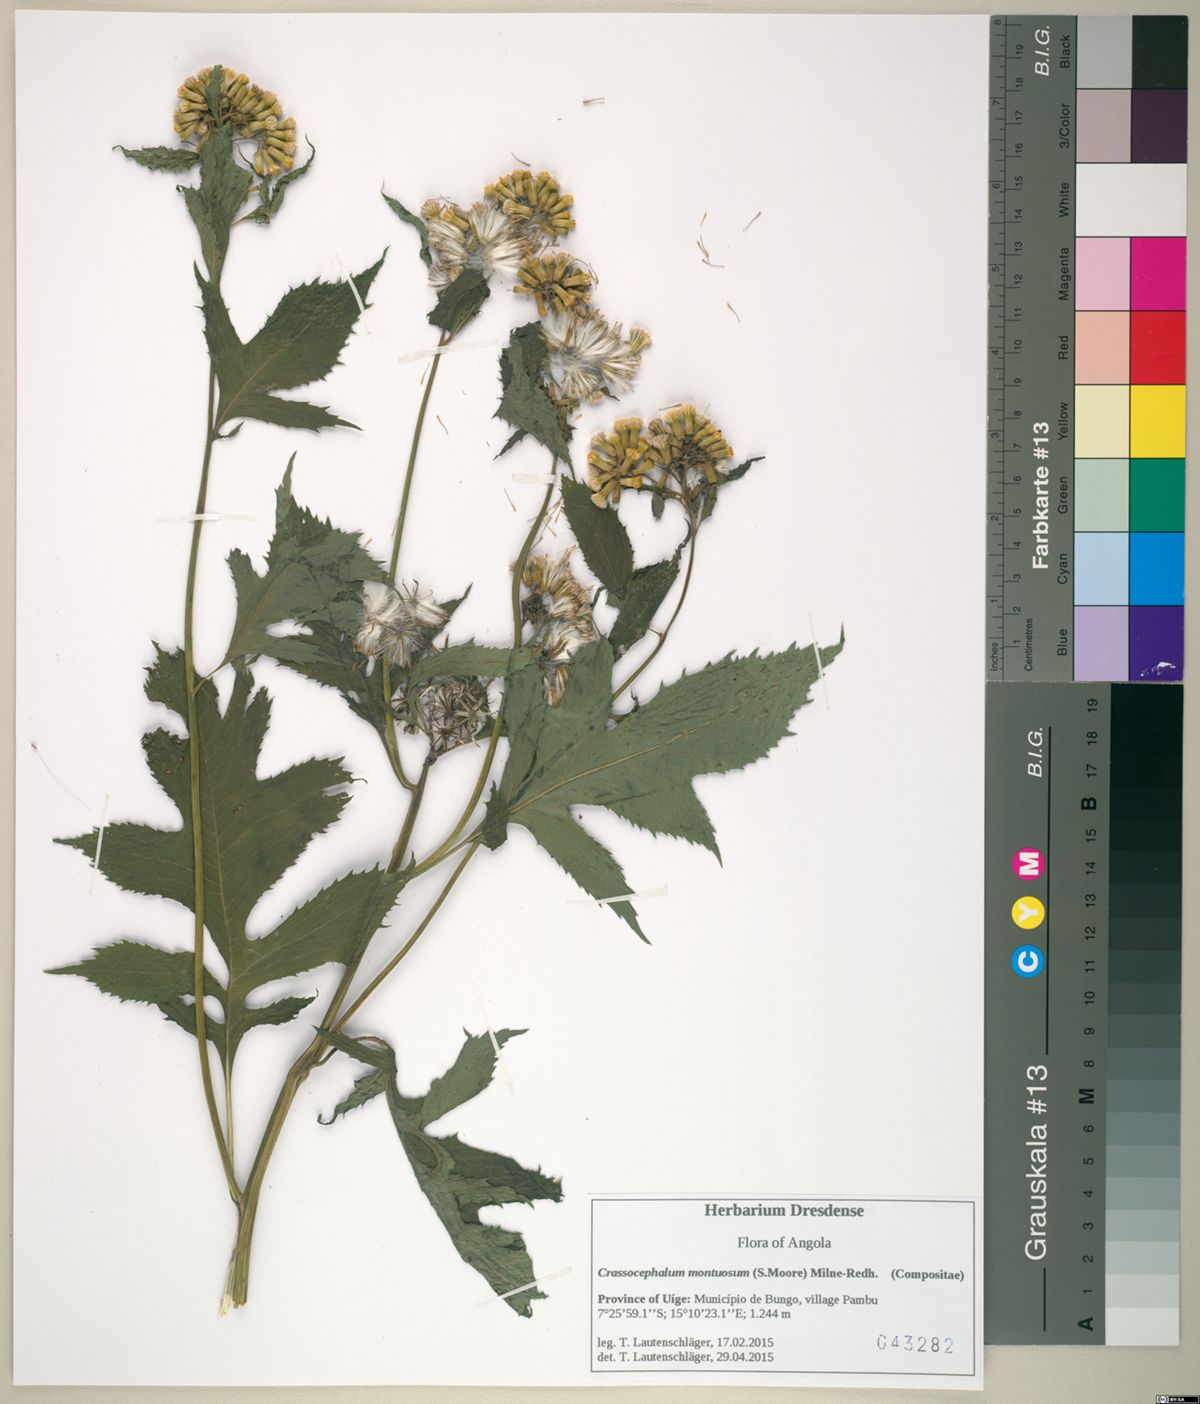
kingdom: Plantae
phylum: Tracheophyta
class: Magnoliopsida
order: Asterales
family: Asteraceae
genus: Crassocephalum
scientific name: Crassocephalum montuosum
